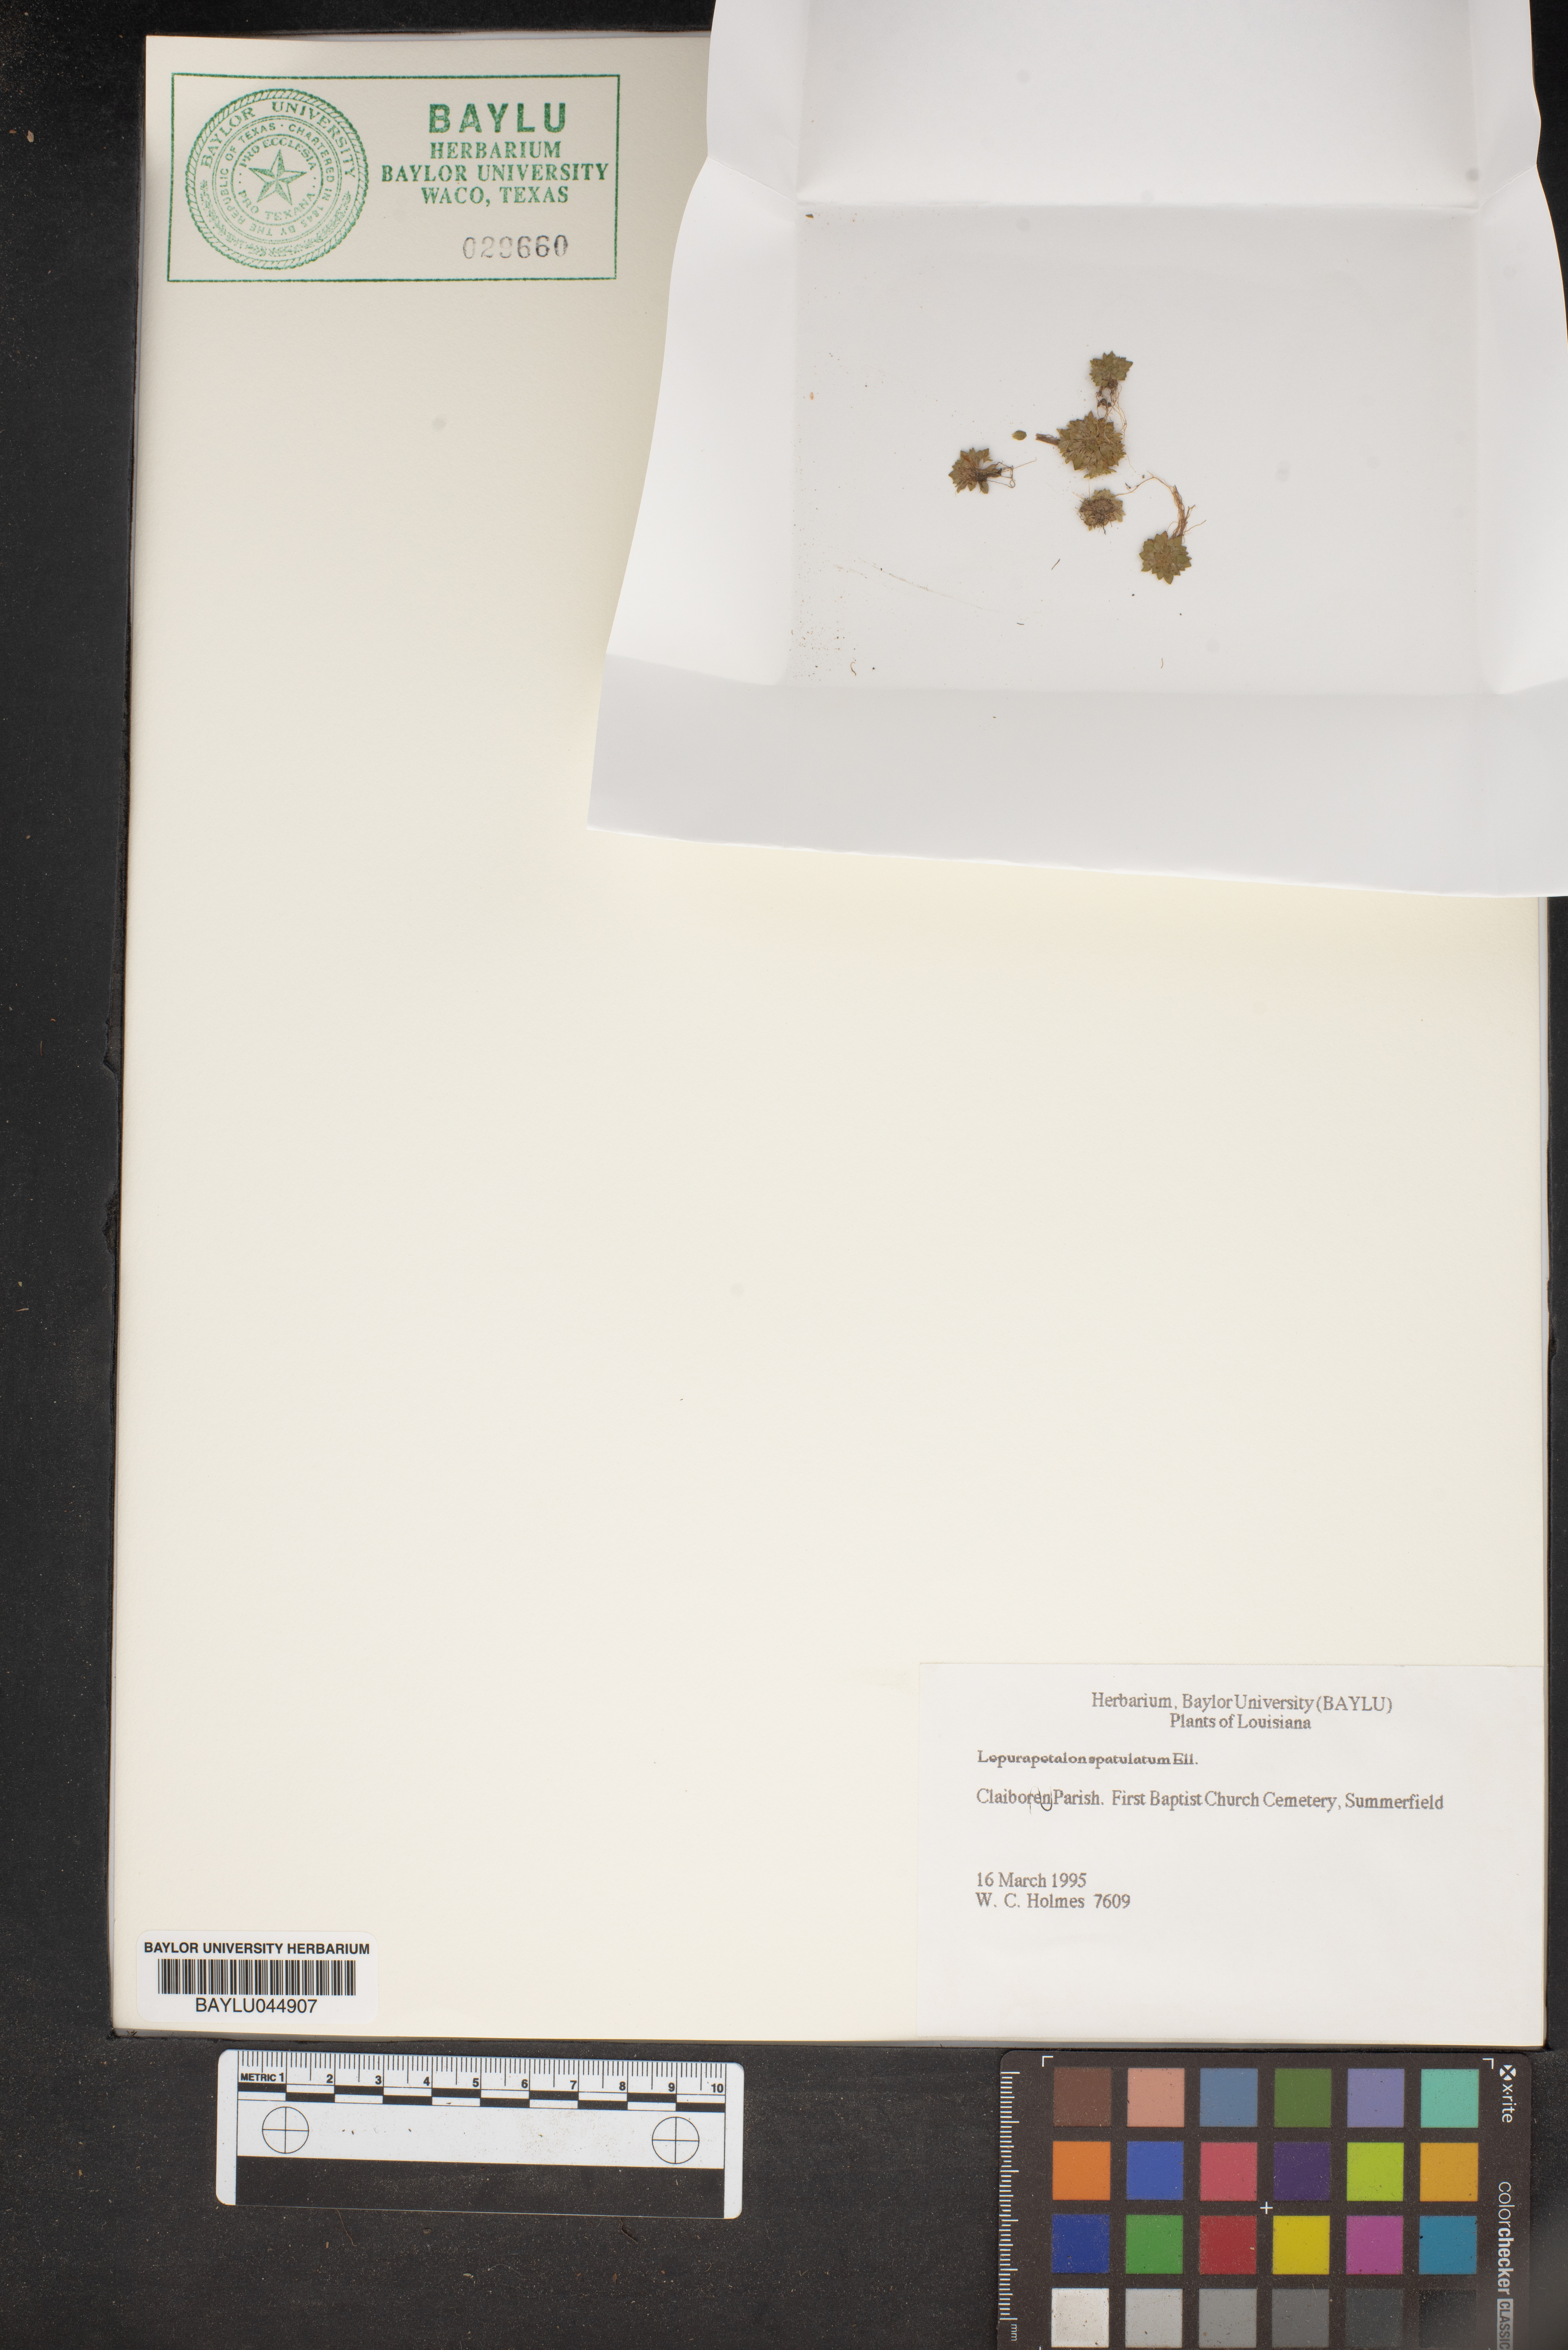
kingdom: Plantae
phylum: Tracheophyta
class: Magnoliopsida
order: Celastrales
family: Parnassiaceae
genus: Lepuropetalon
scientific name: Lepuropetalon spathulatum
